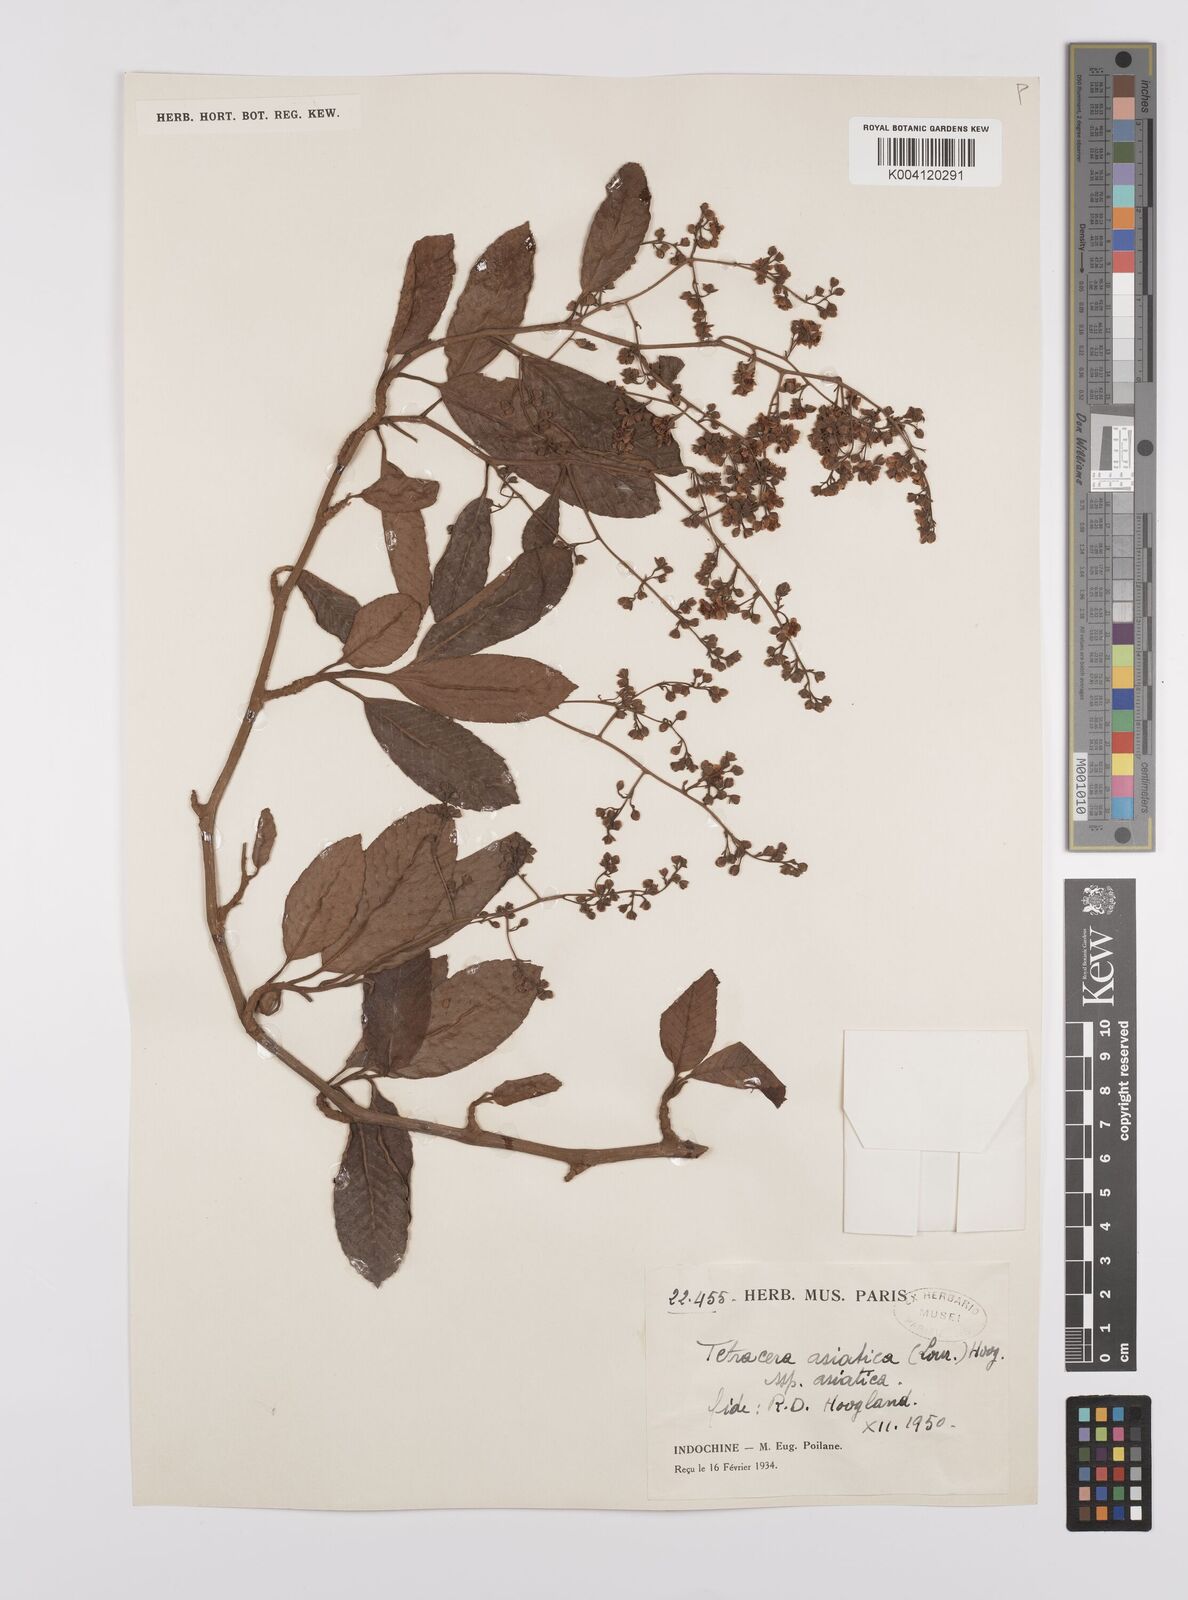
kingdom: Plantae
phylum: Tracheophyta
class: Magnoliopsida
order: Dilleniales
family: Dilleniaceae
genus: Tetracera
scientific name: Tetracera sarmentosa
